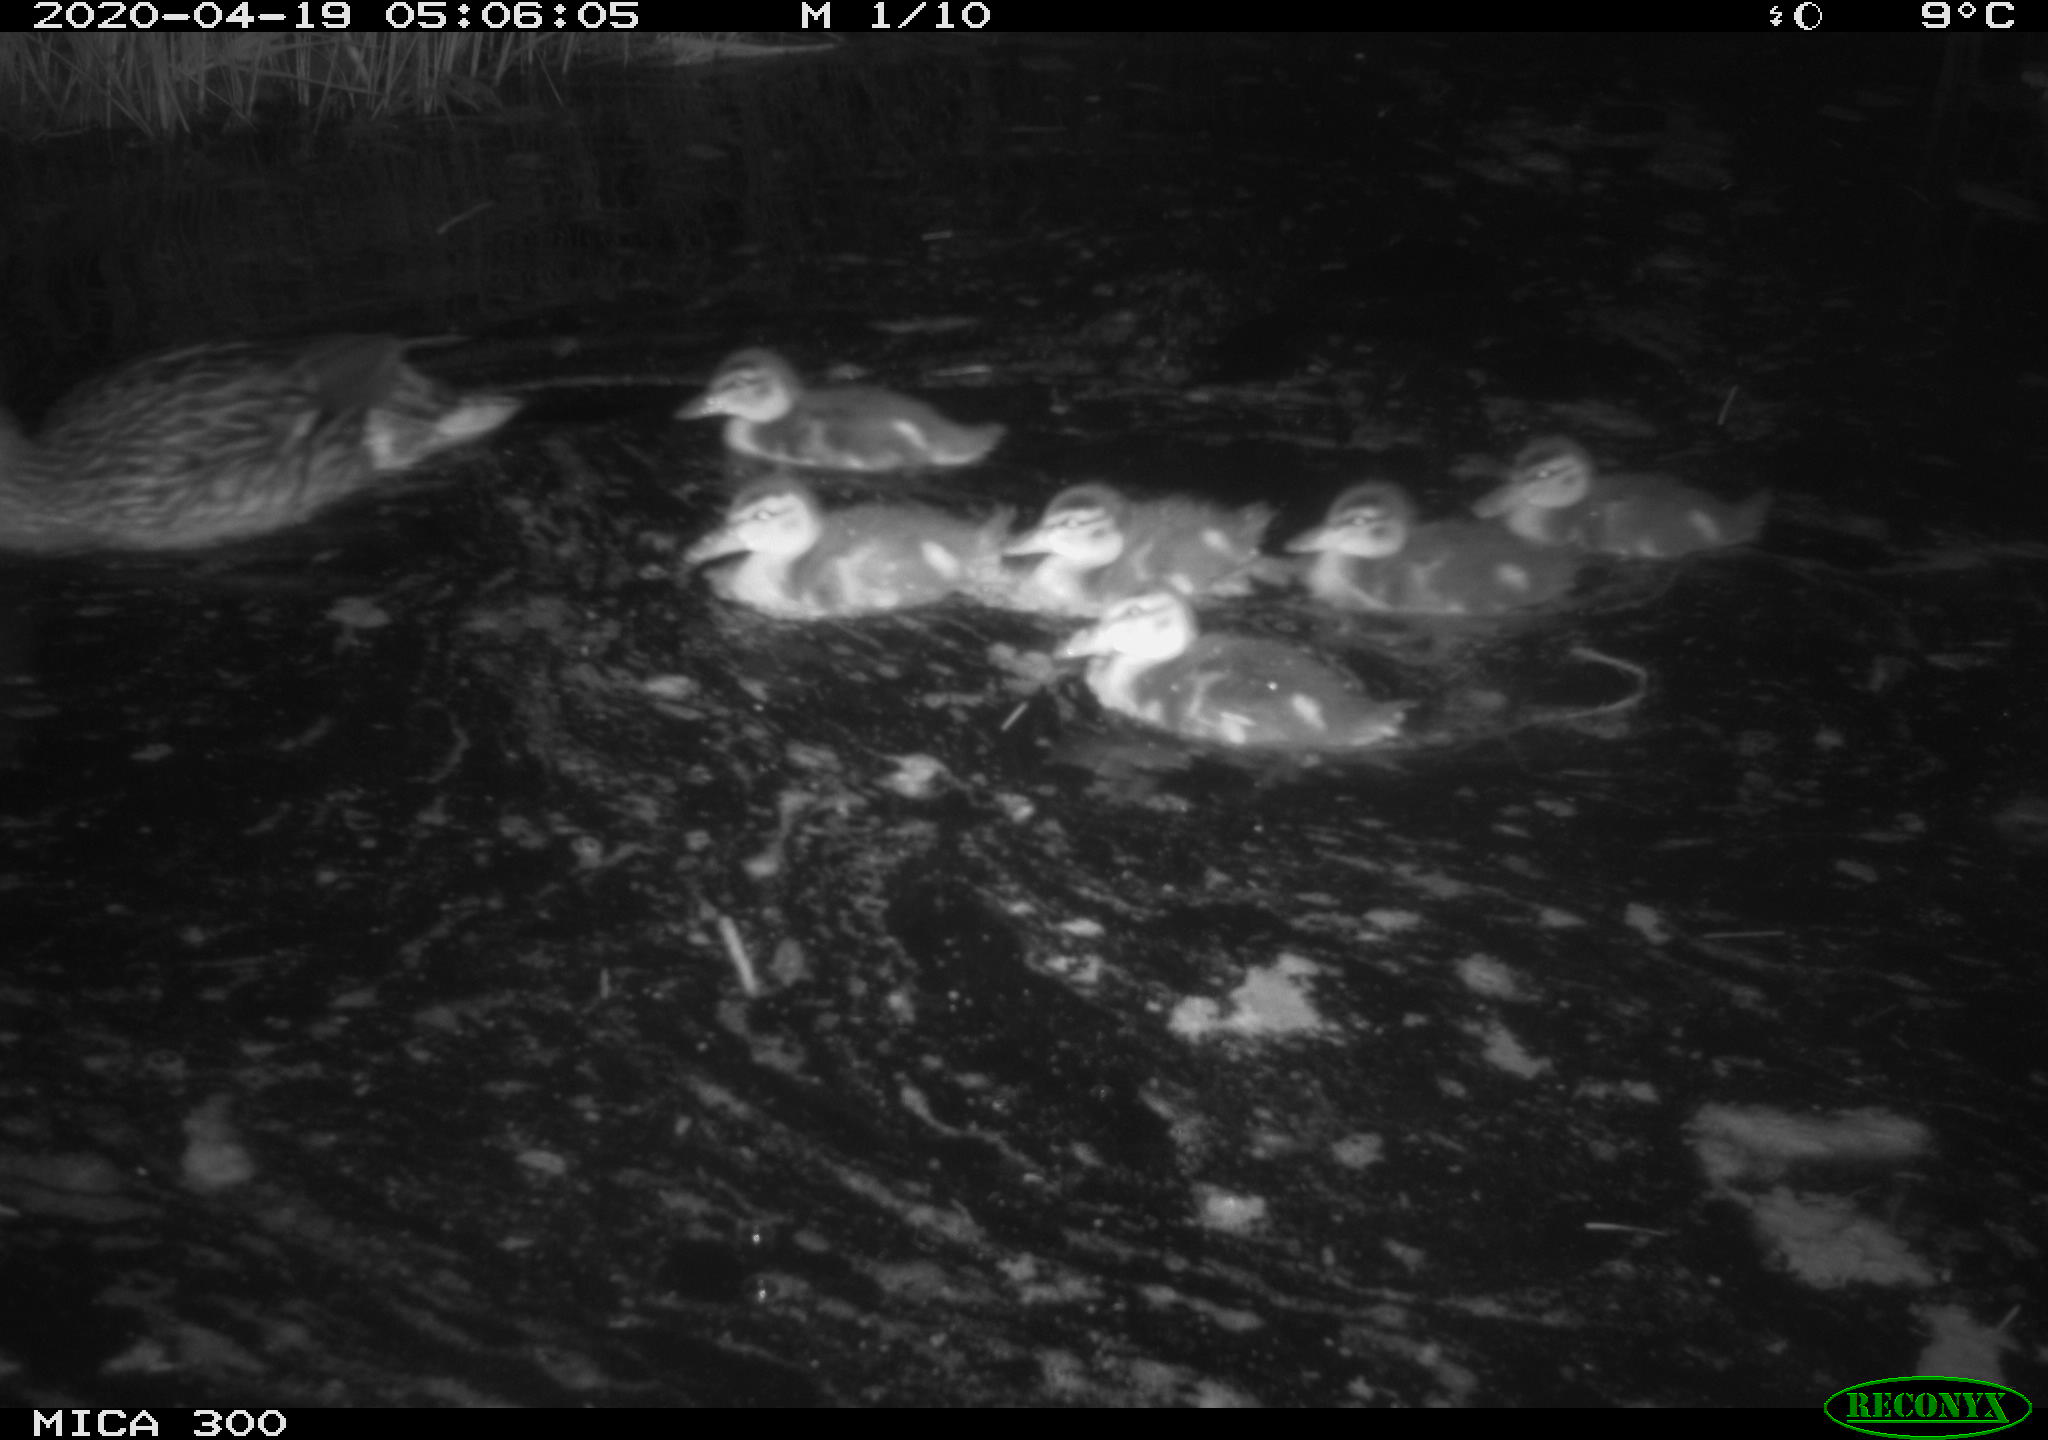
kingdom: Animalia
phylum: Chordata
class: Aves
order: Anseriformes
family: Anatidae
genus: Anas
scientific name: Anas platyrhynchos
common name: Mallard
